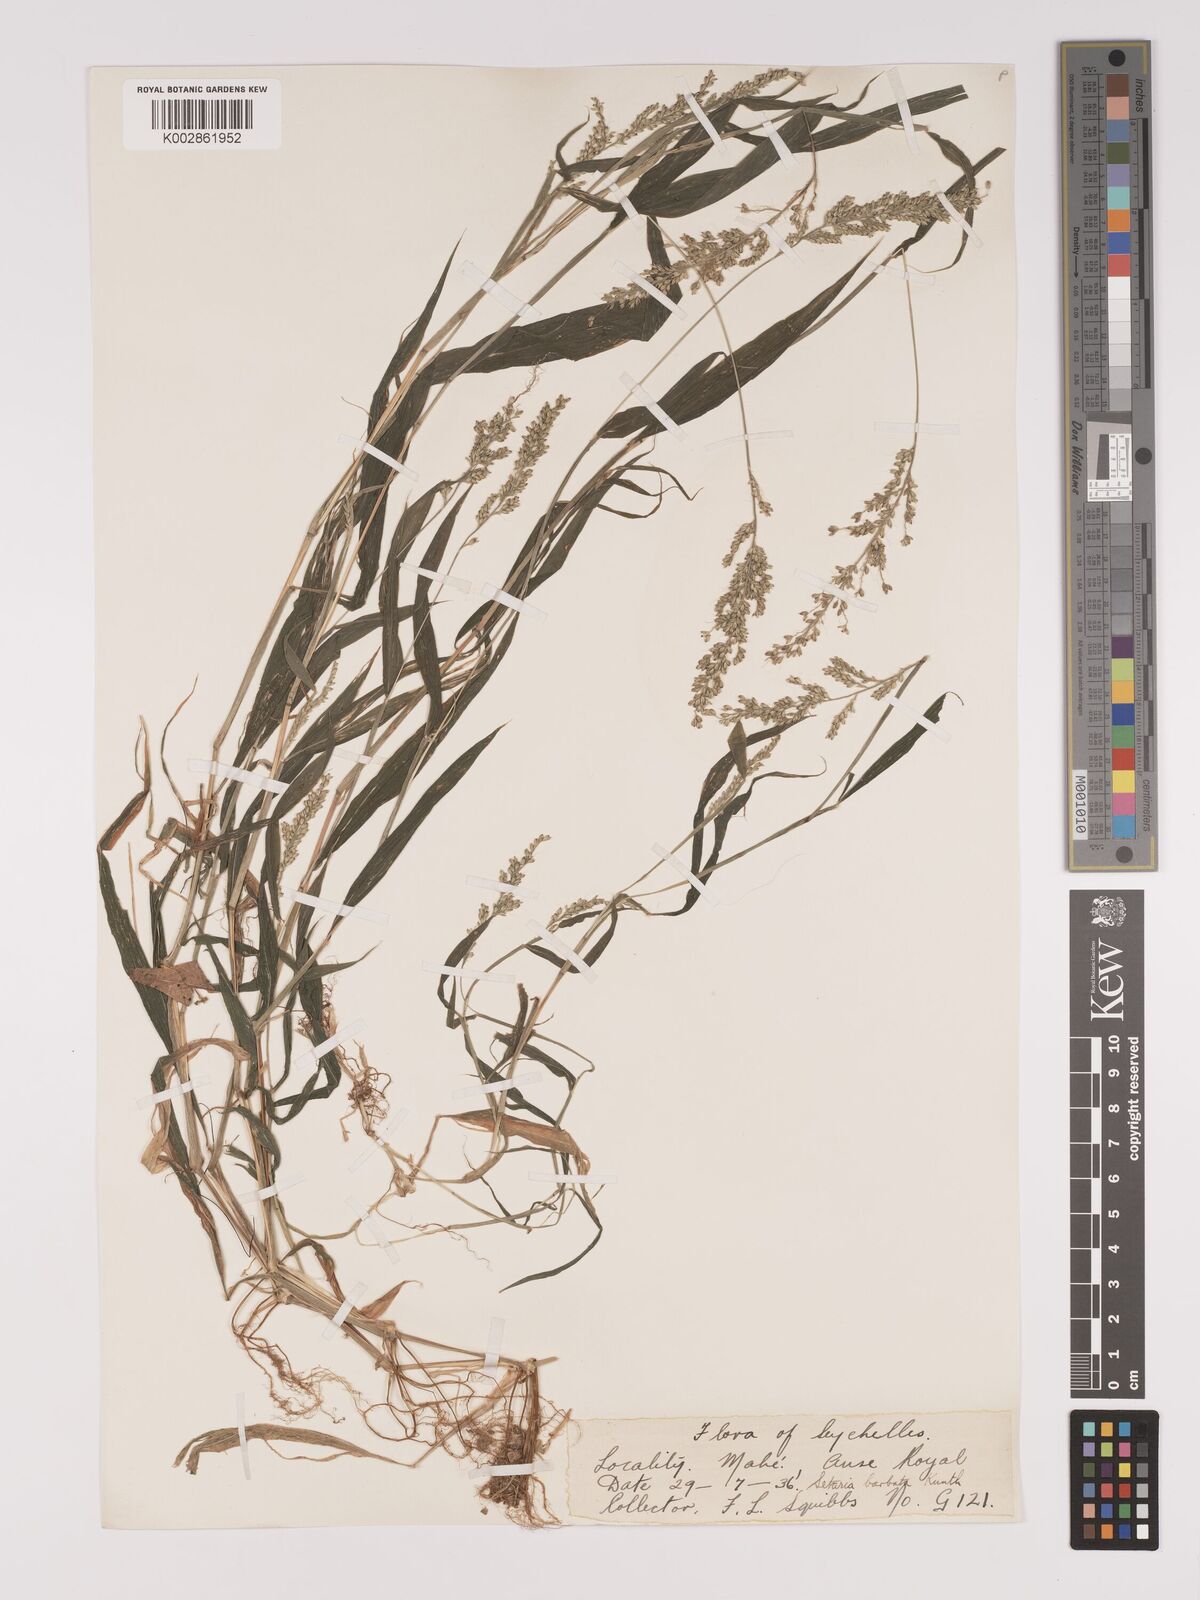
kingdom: Plantae
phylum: Tracheophyta
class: Liliopsida
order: Poales
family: Poaceae
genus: Setaria
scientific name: Setaria barbata
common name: East indian bristlegrass
